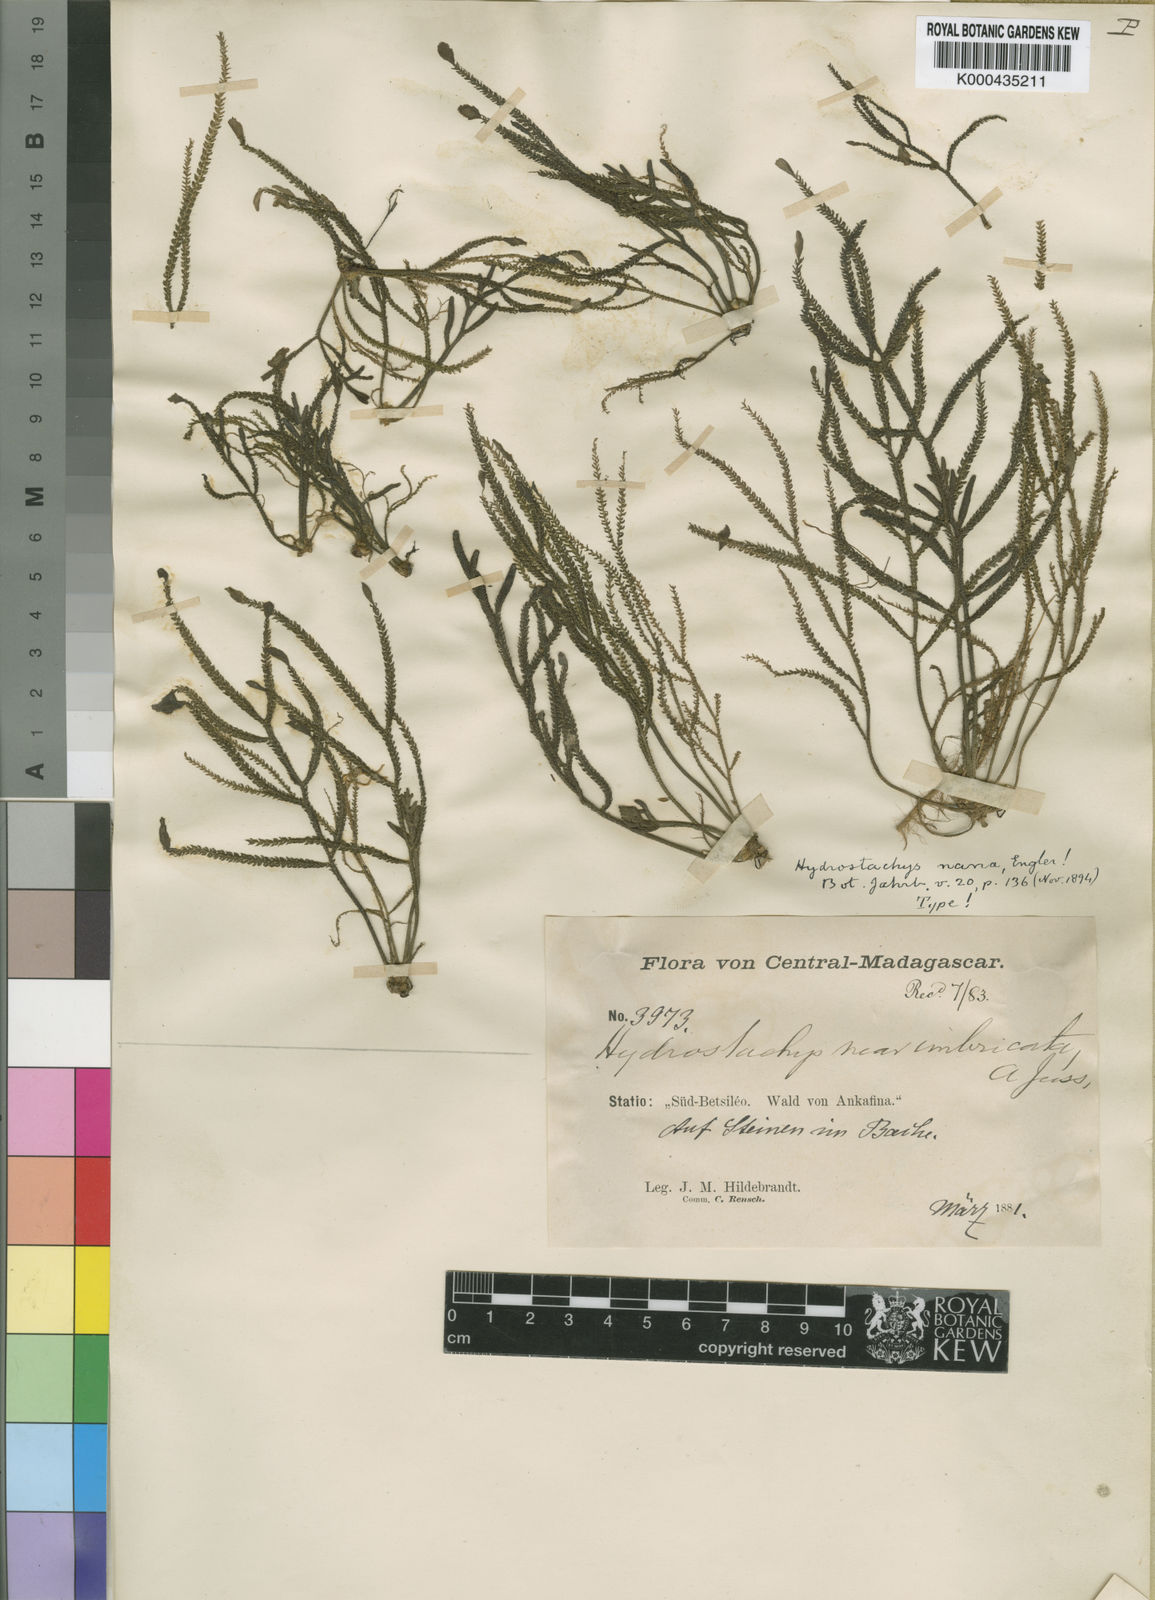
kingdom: Plantae
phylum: Tracheophyta
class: Magnoliopsida
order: Cornales
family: Hydrostachyaceae
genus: Hydrostachys
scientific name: Hydrostachys distichophylla
